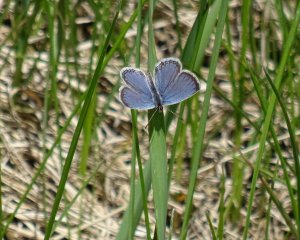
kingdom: Animalia
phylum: Arthropoda
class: Insecta
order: Lepidoptera
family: Lycaenidae
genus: Elkalyce
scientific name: Elkalyce comyntas
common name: Eastern Tailed-Blue
